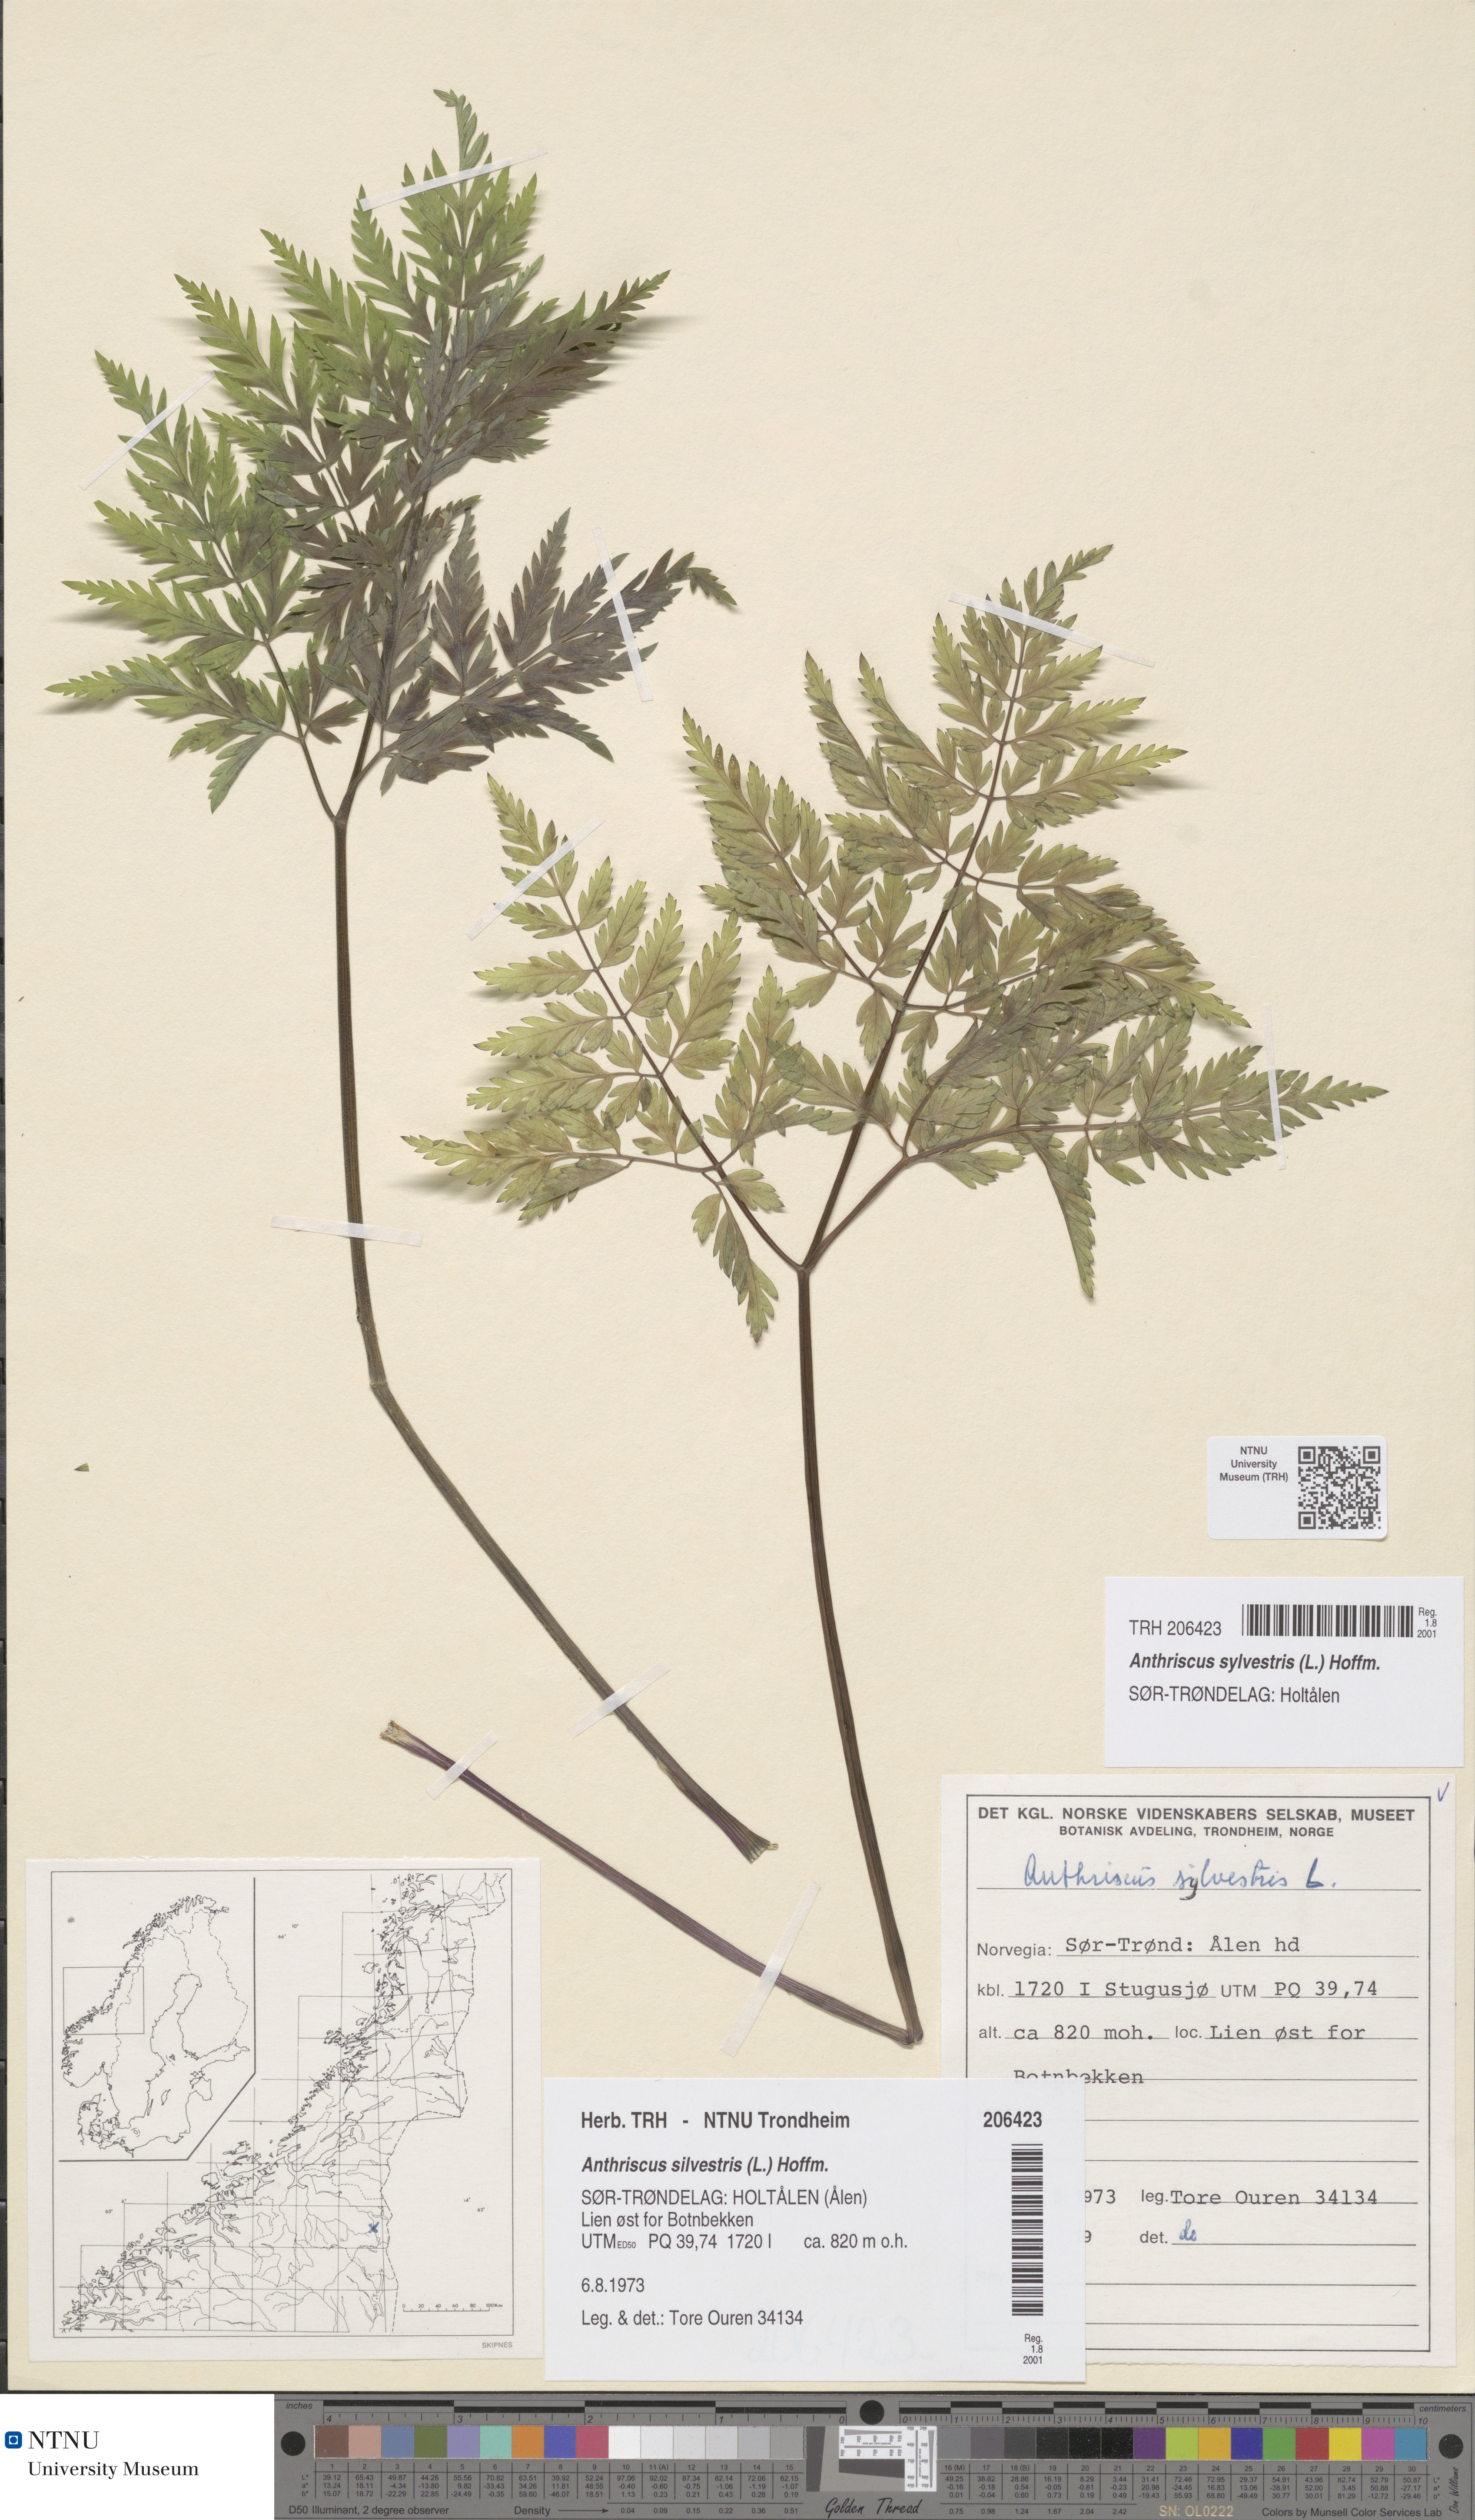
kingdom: Plantae
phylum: Tracheophyta
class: Magnoliopsida
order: Apiales
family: Apiaceae
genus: Anthriscus
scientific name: Anthriscus sylvestris
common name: Cow parsley
